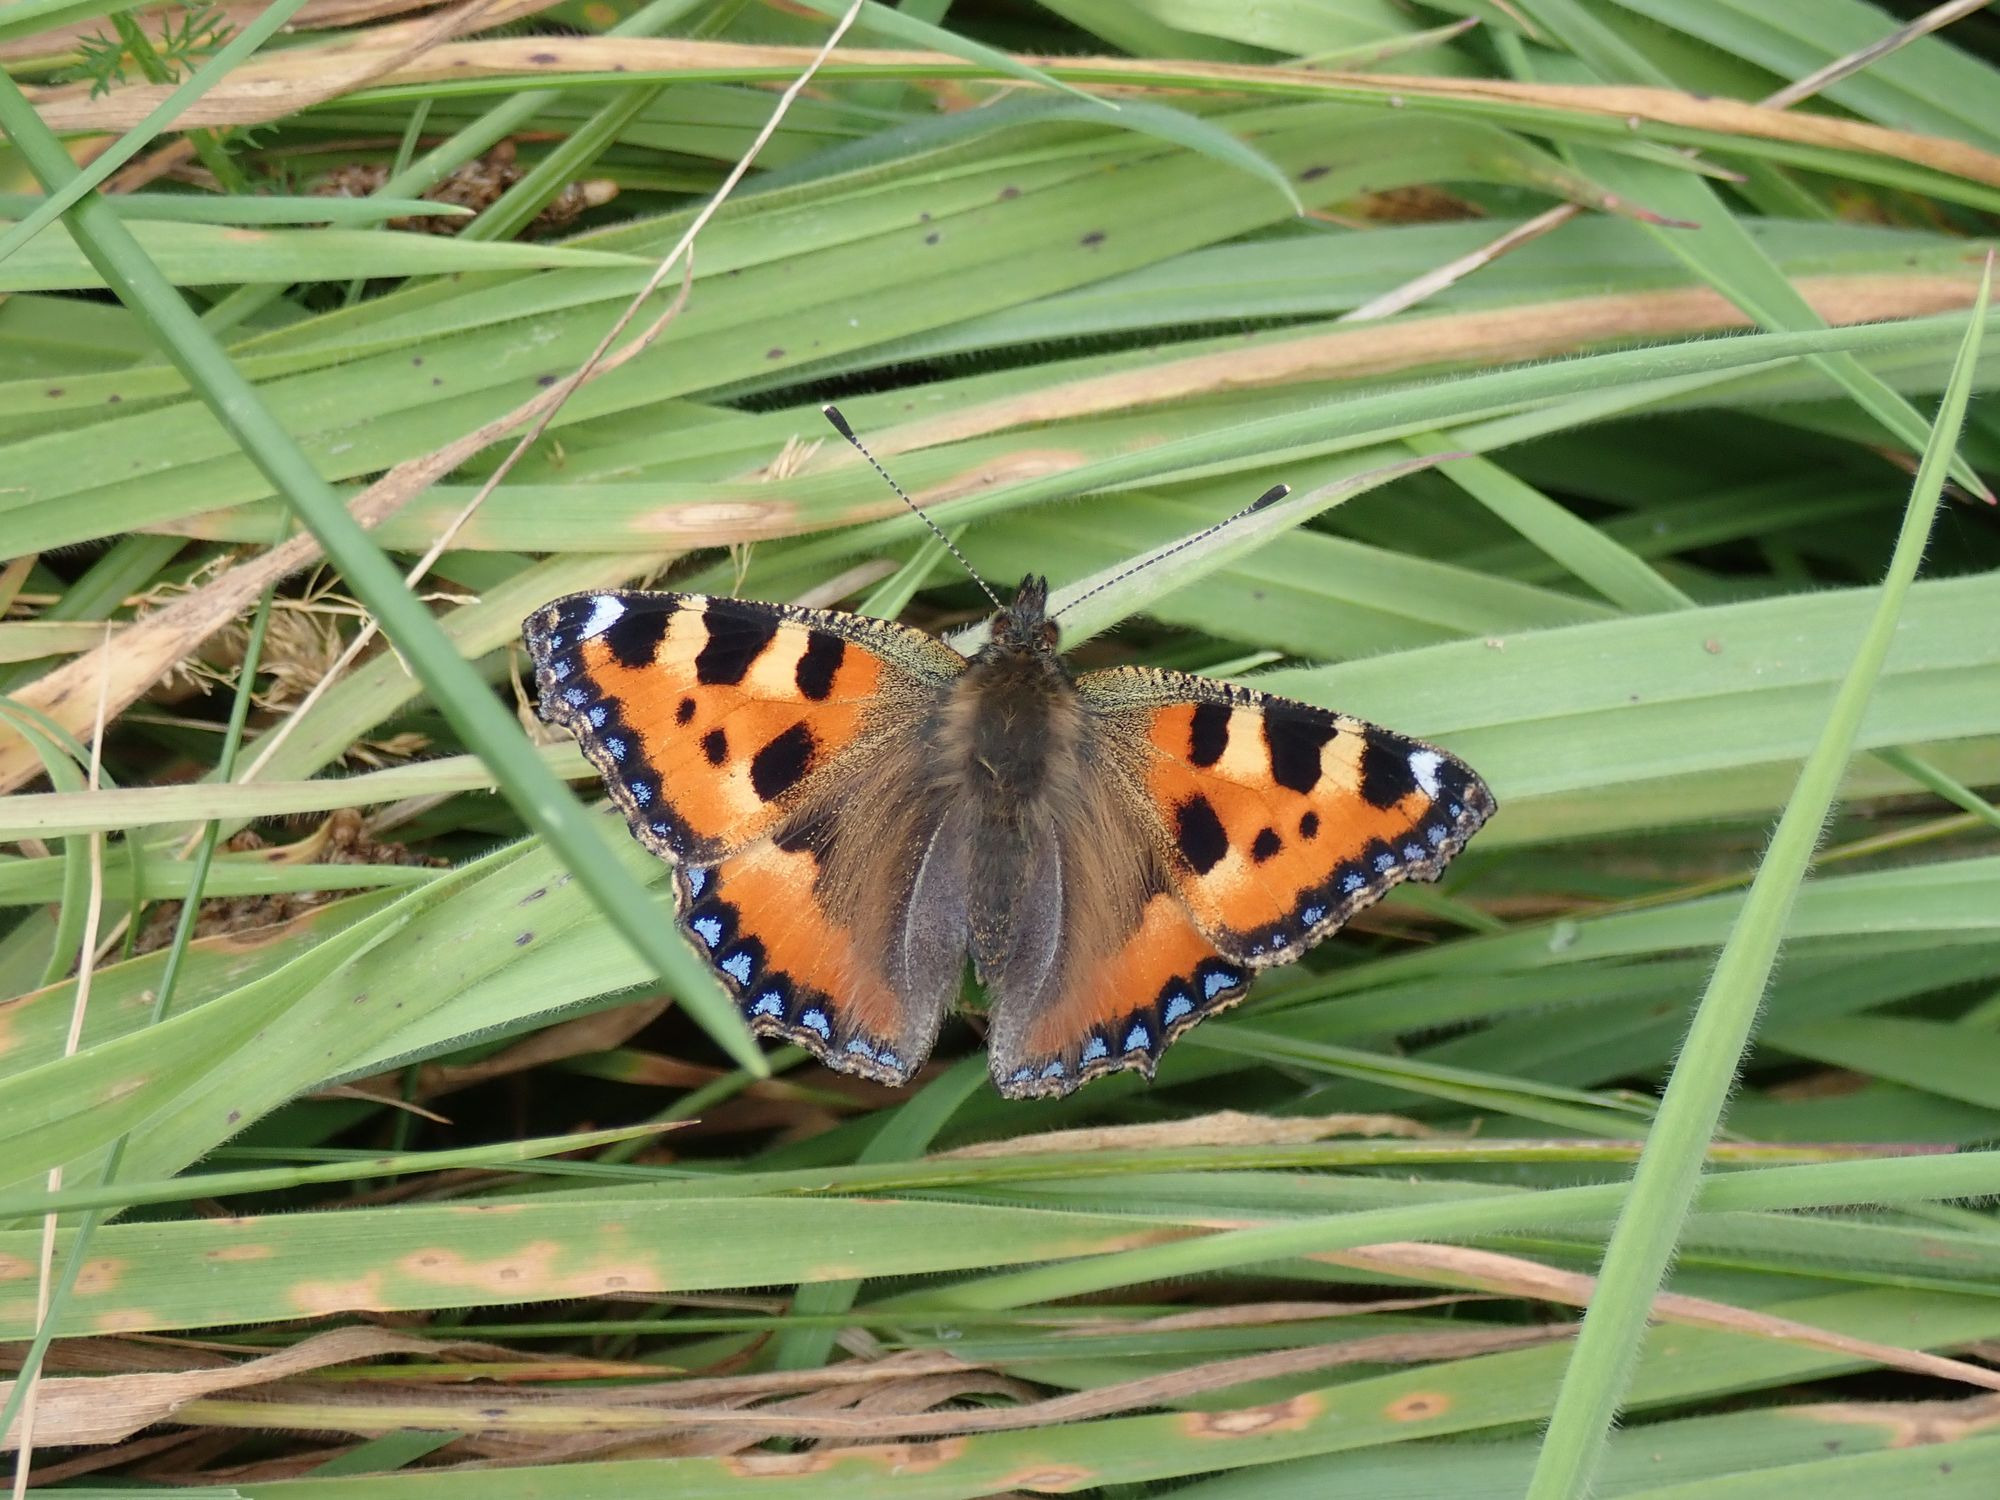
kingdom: Animalia
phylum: Arthropoda
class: Insecta
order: Lepidoptera
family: Nymphalidae
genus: Aglais
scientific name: Aglais urticae
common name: Nældens takvinge
